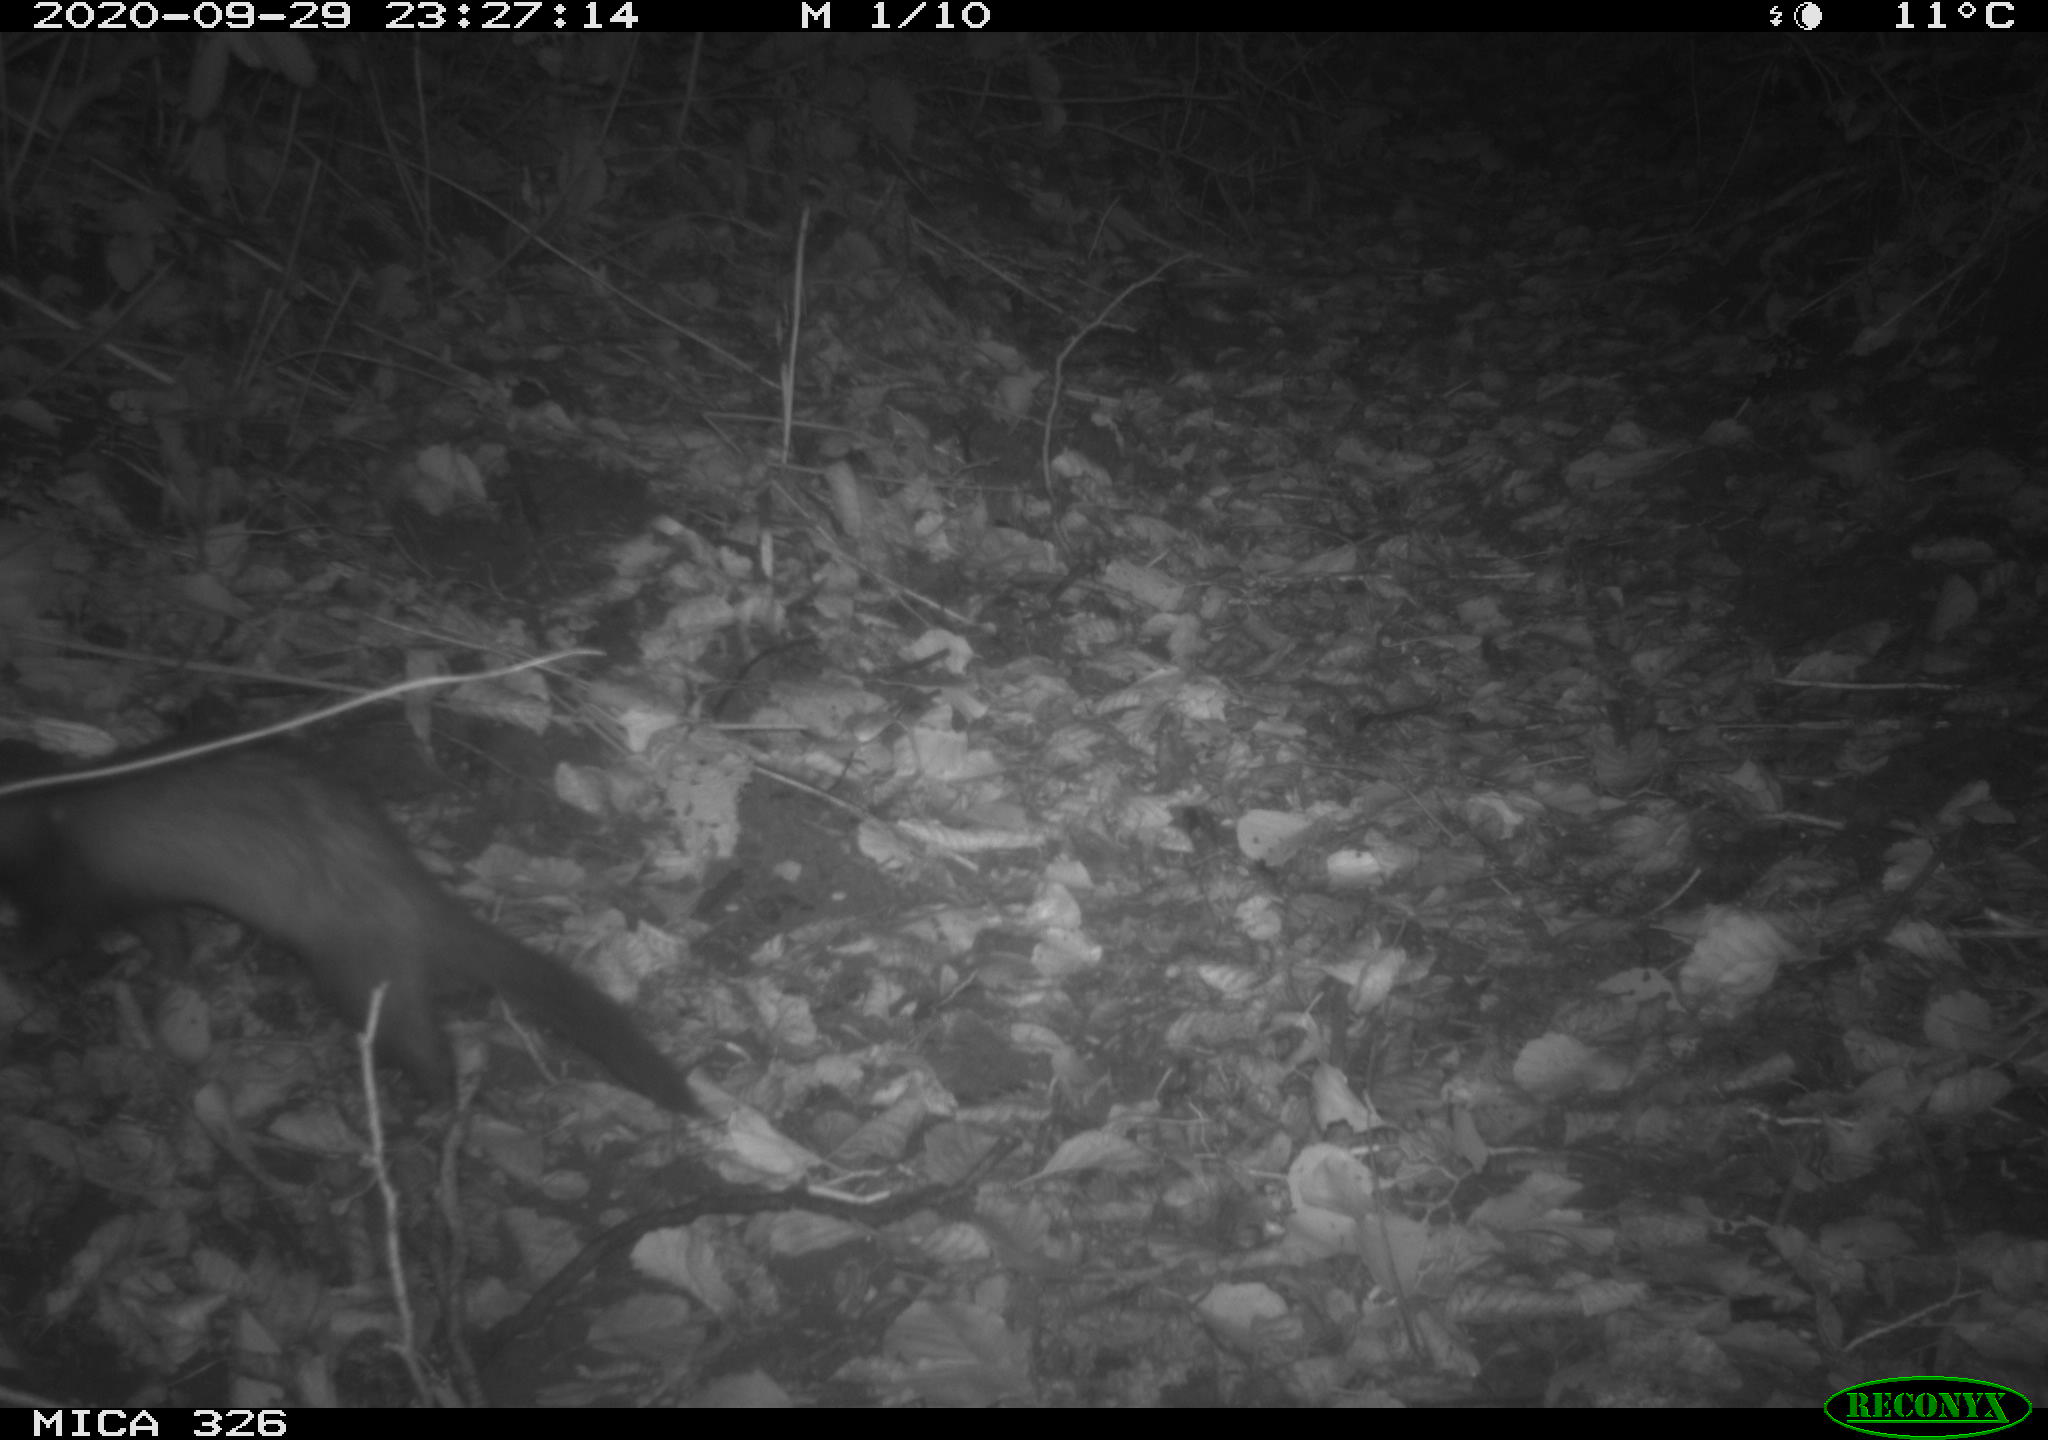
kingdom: Animalia
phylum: Chordata
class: Mammalia
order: Carnivora
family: Mustelidae
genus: Mustela
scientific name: Mustela putorius
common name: European polecat
